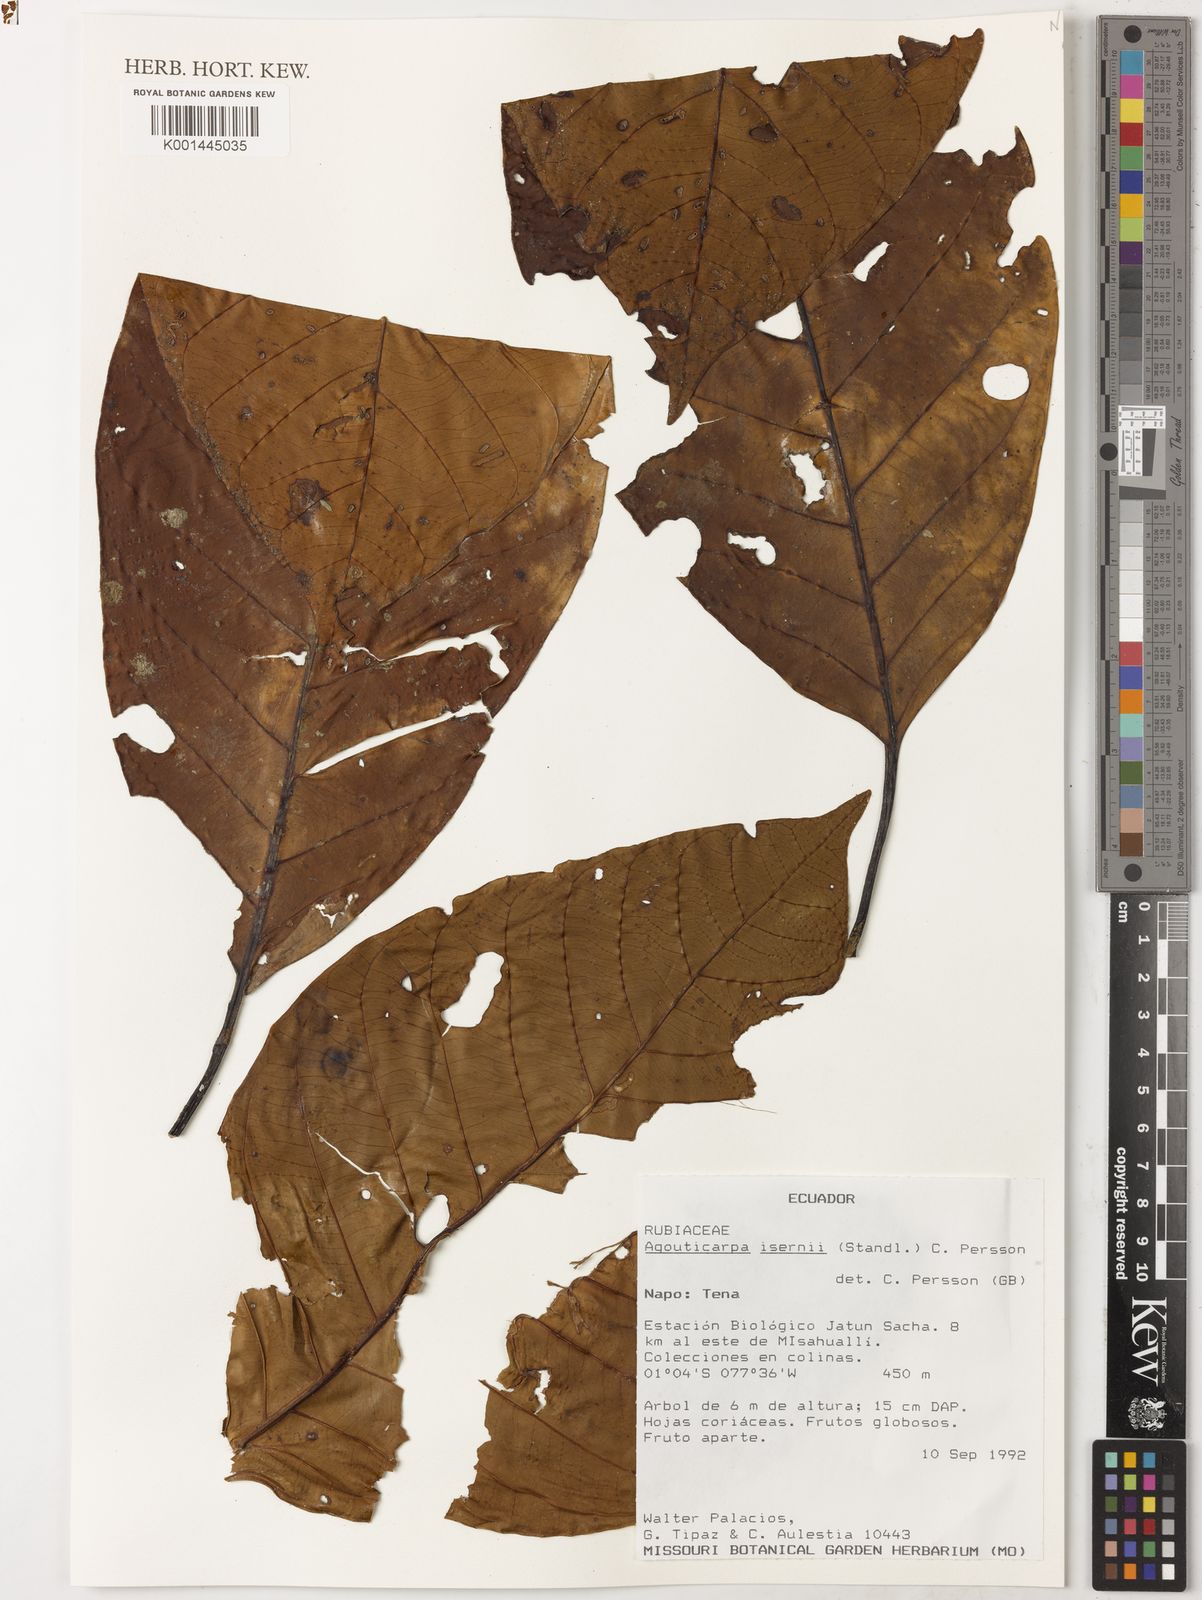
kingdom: Plantae
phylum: Tracheophyta
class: Magnoliopsida
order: Gentianales
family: Rubiaceae
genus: Agouticarpa
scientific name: Agouticarpa isernii
